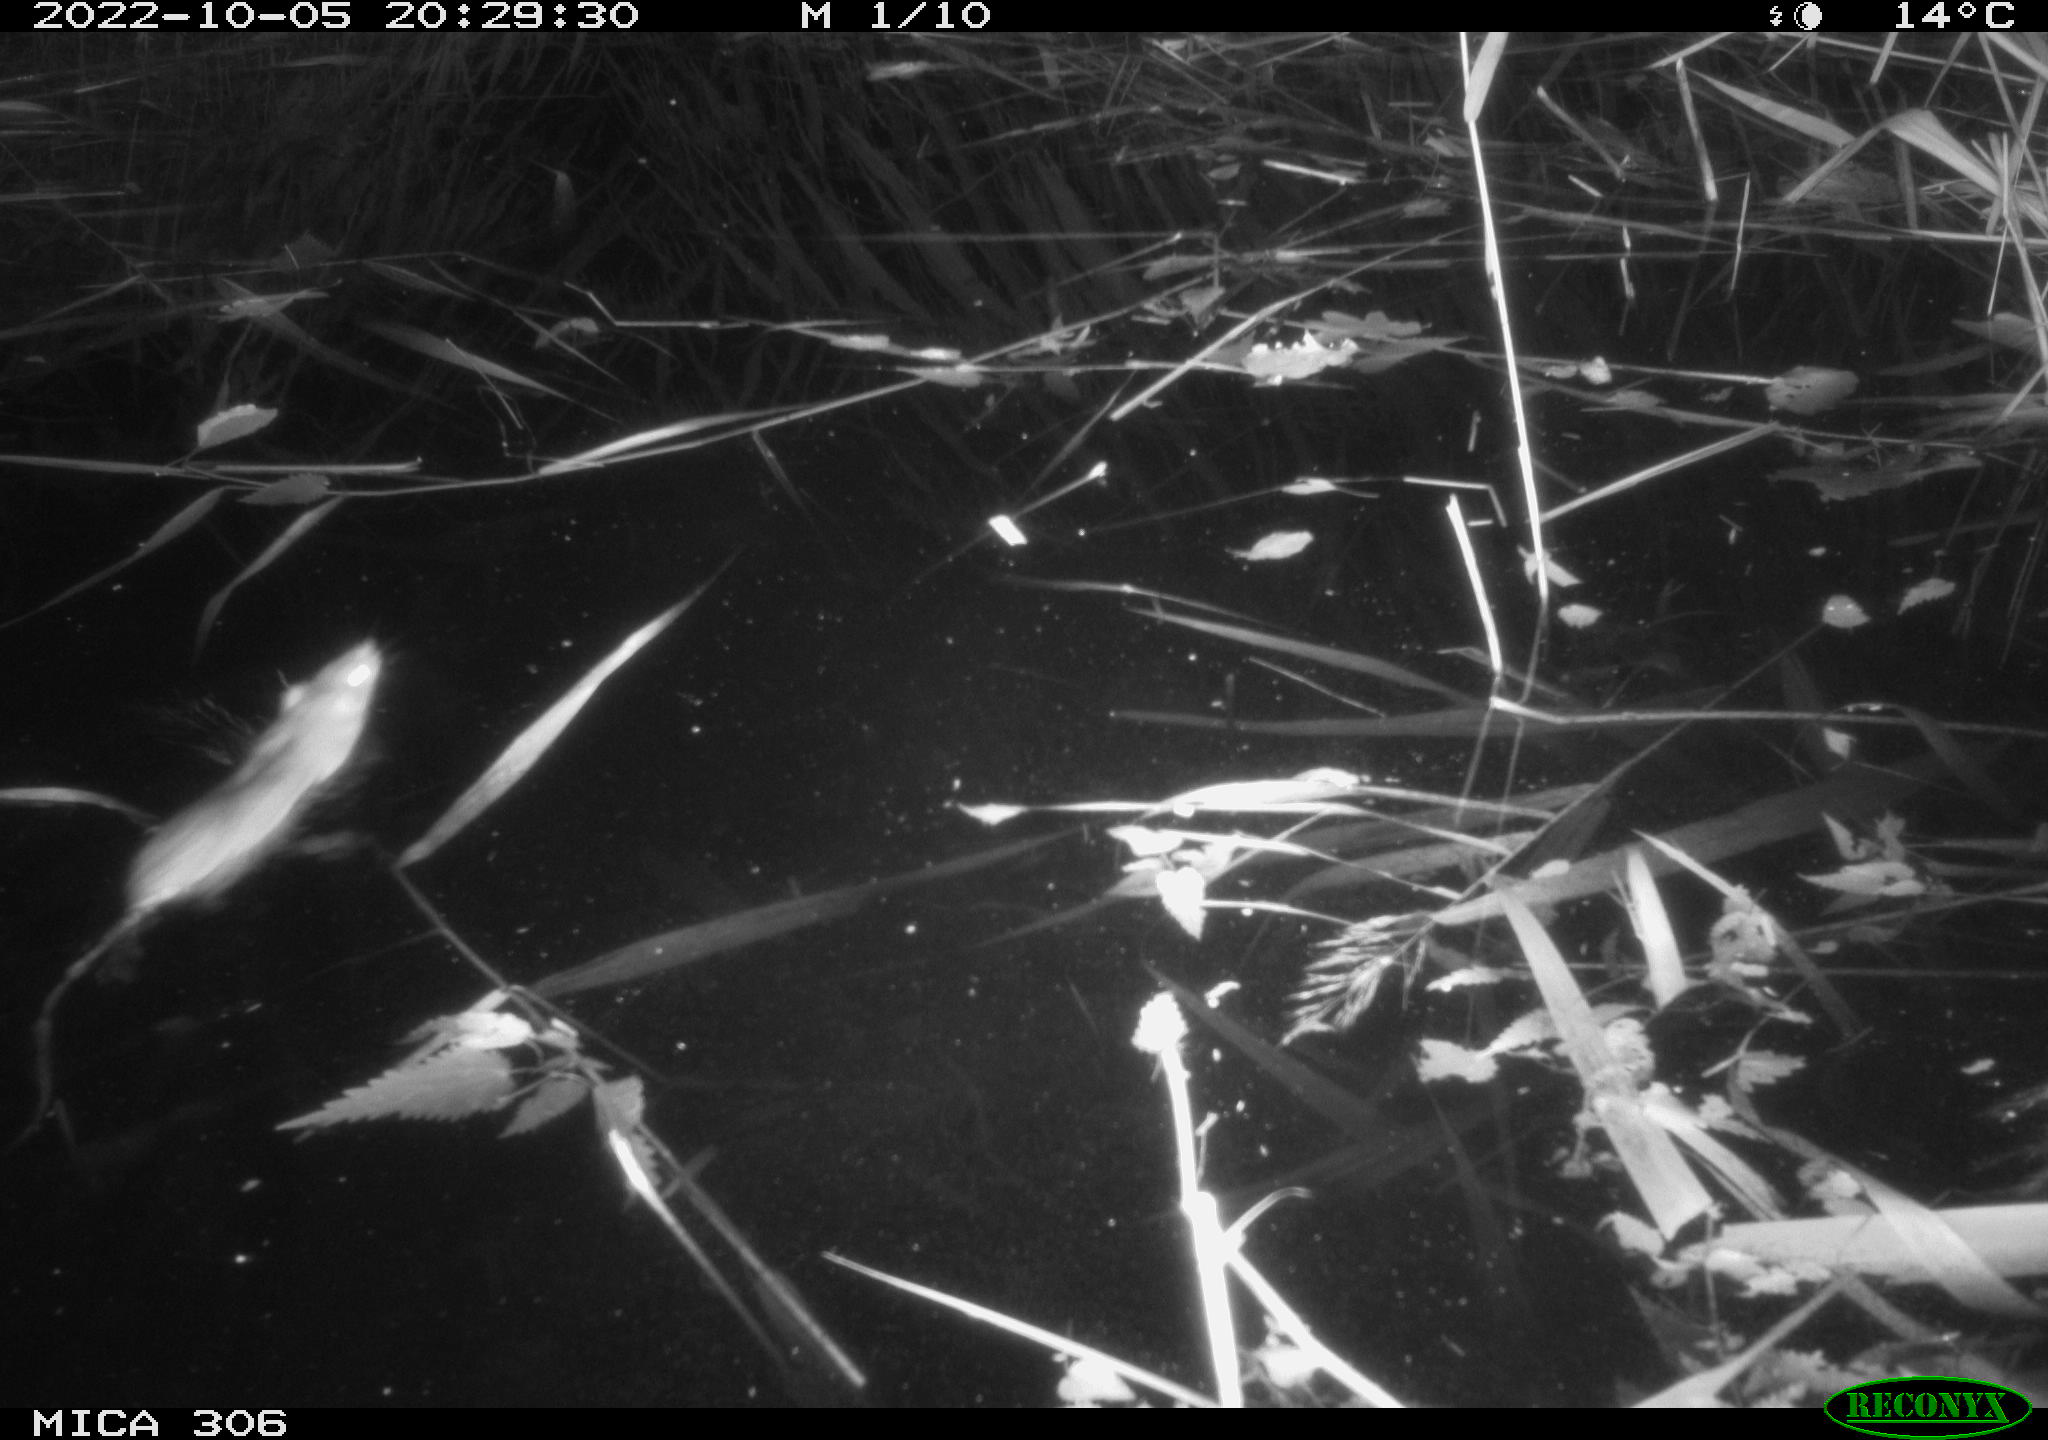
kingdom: Animalia
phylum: Chordata
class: Mammalia
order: Rodentia
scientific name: Rodentia
